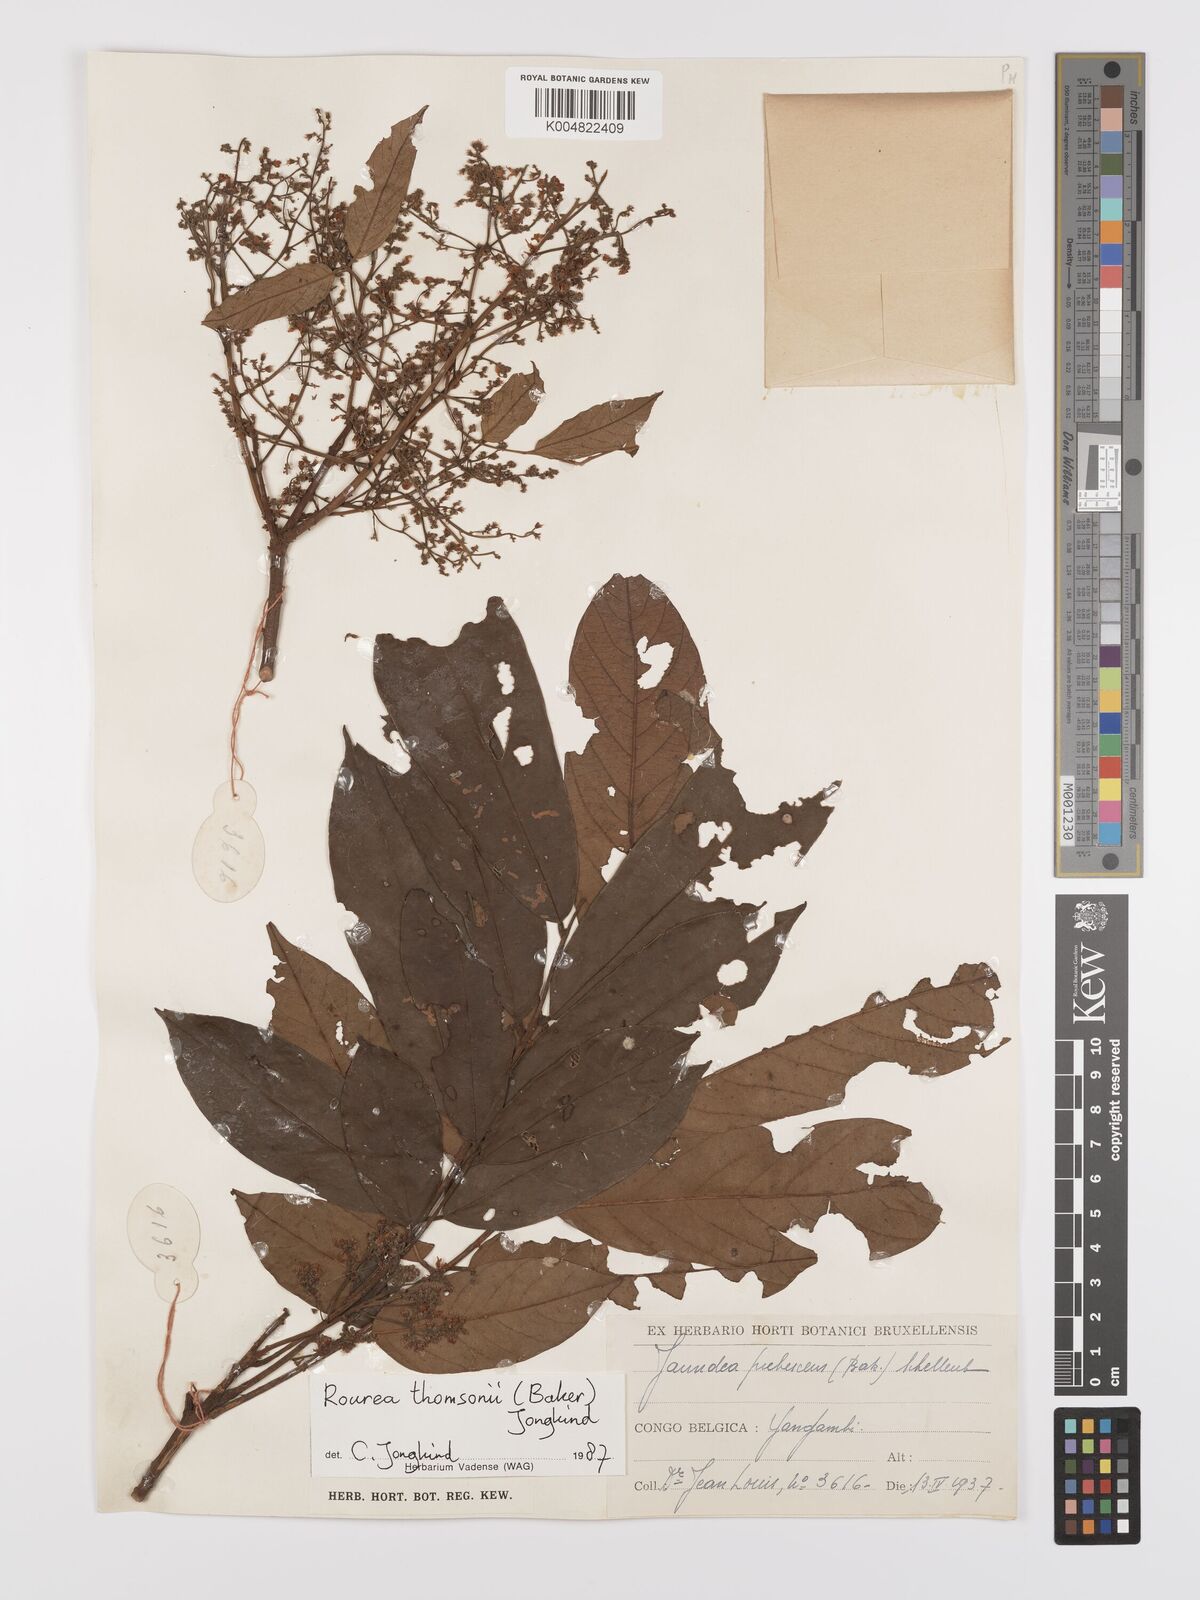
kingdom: Plantae
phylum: Tracheophyta
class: Magnoliopsida
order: Oxalidales
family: Connaraceae
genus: Rourea
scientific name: Rourea pubescens
